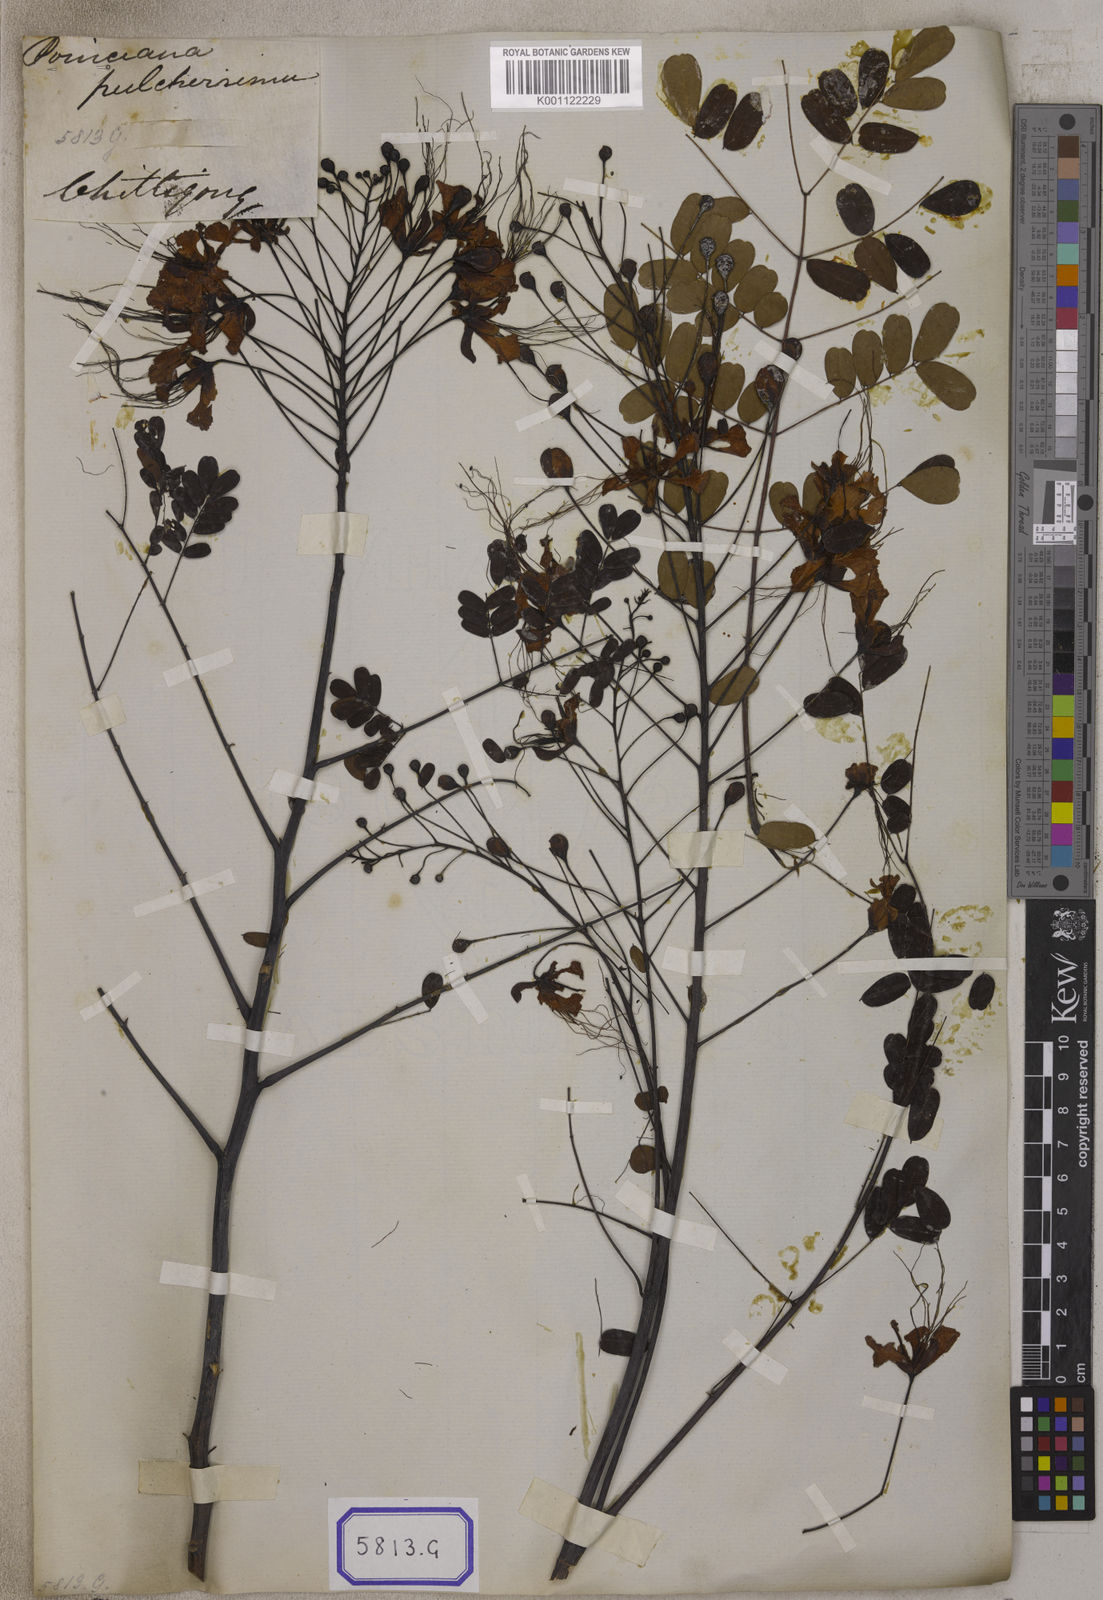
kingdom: Plantae
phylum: Tracheophyta
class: Magnoliopsida
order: Fabales
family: Fabaceae
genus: Caesalpinia
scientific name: Caesalpinia pulcherrima
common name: Pride-of-barbados
